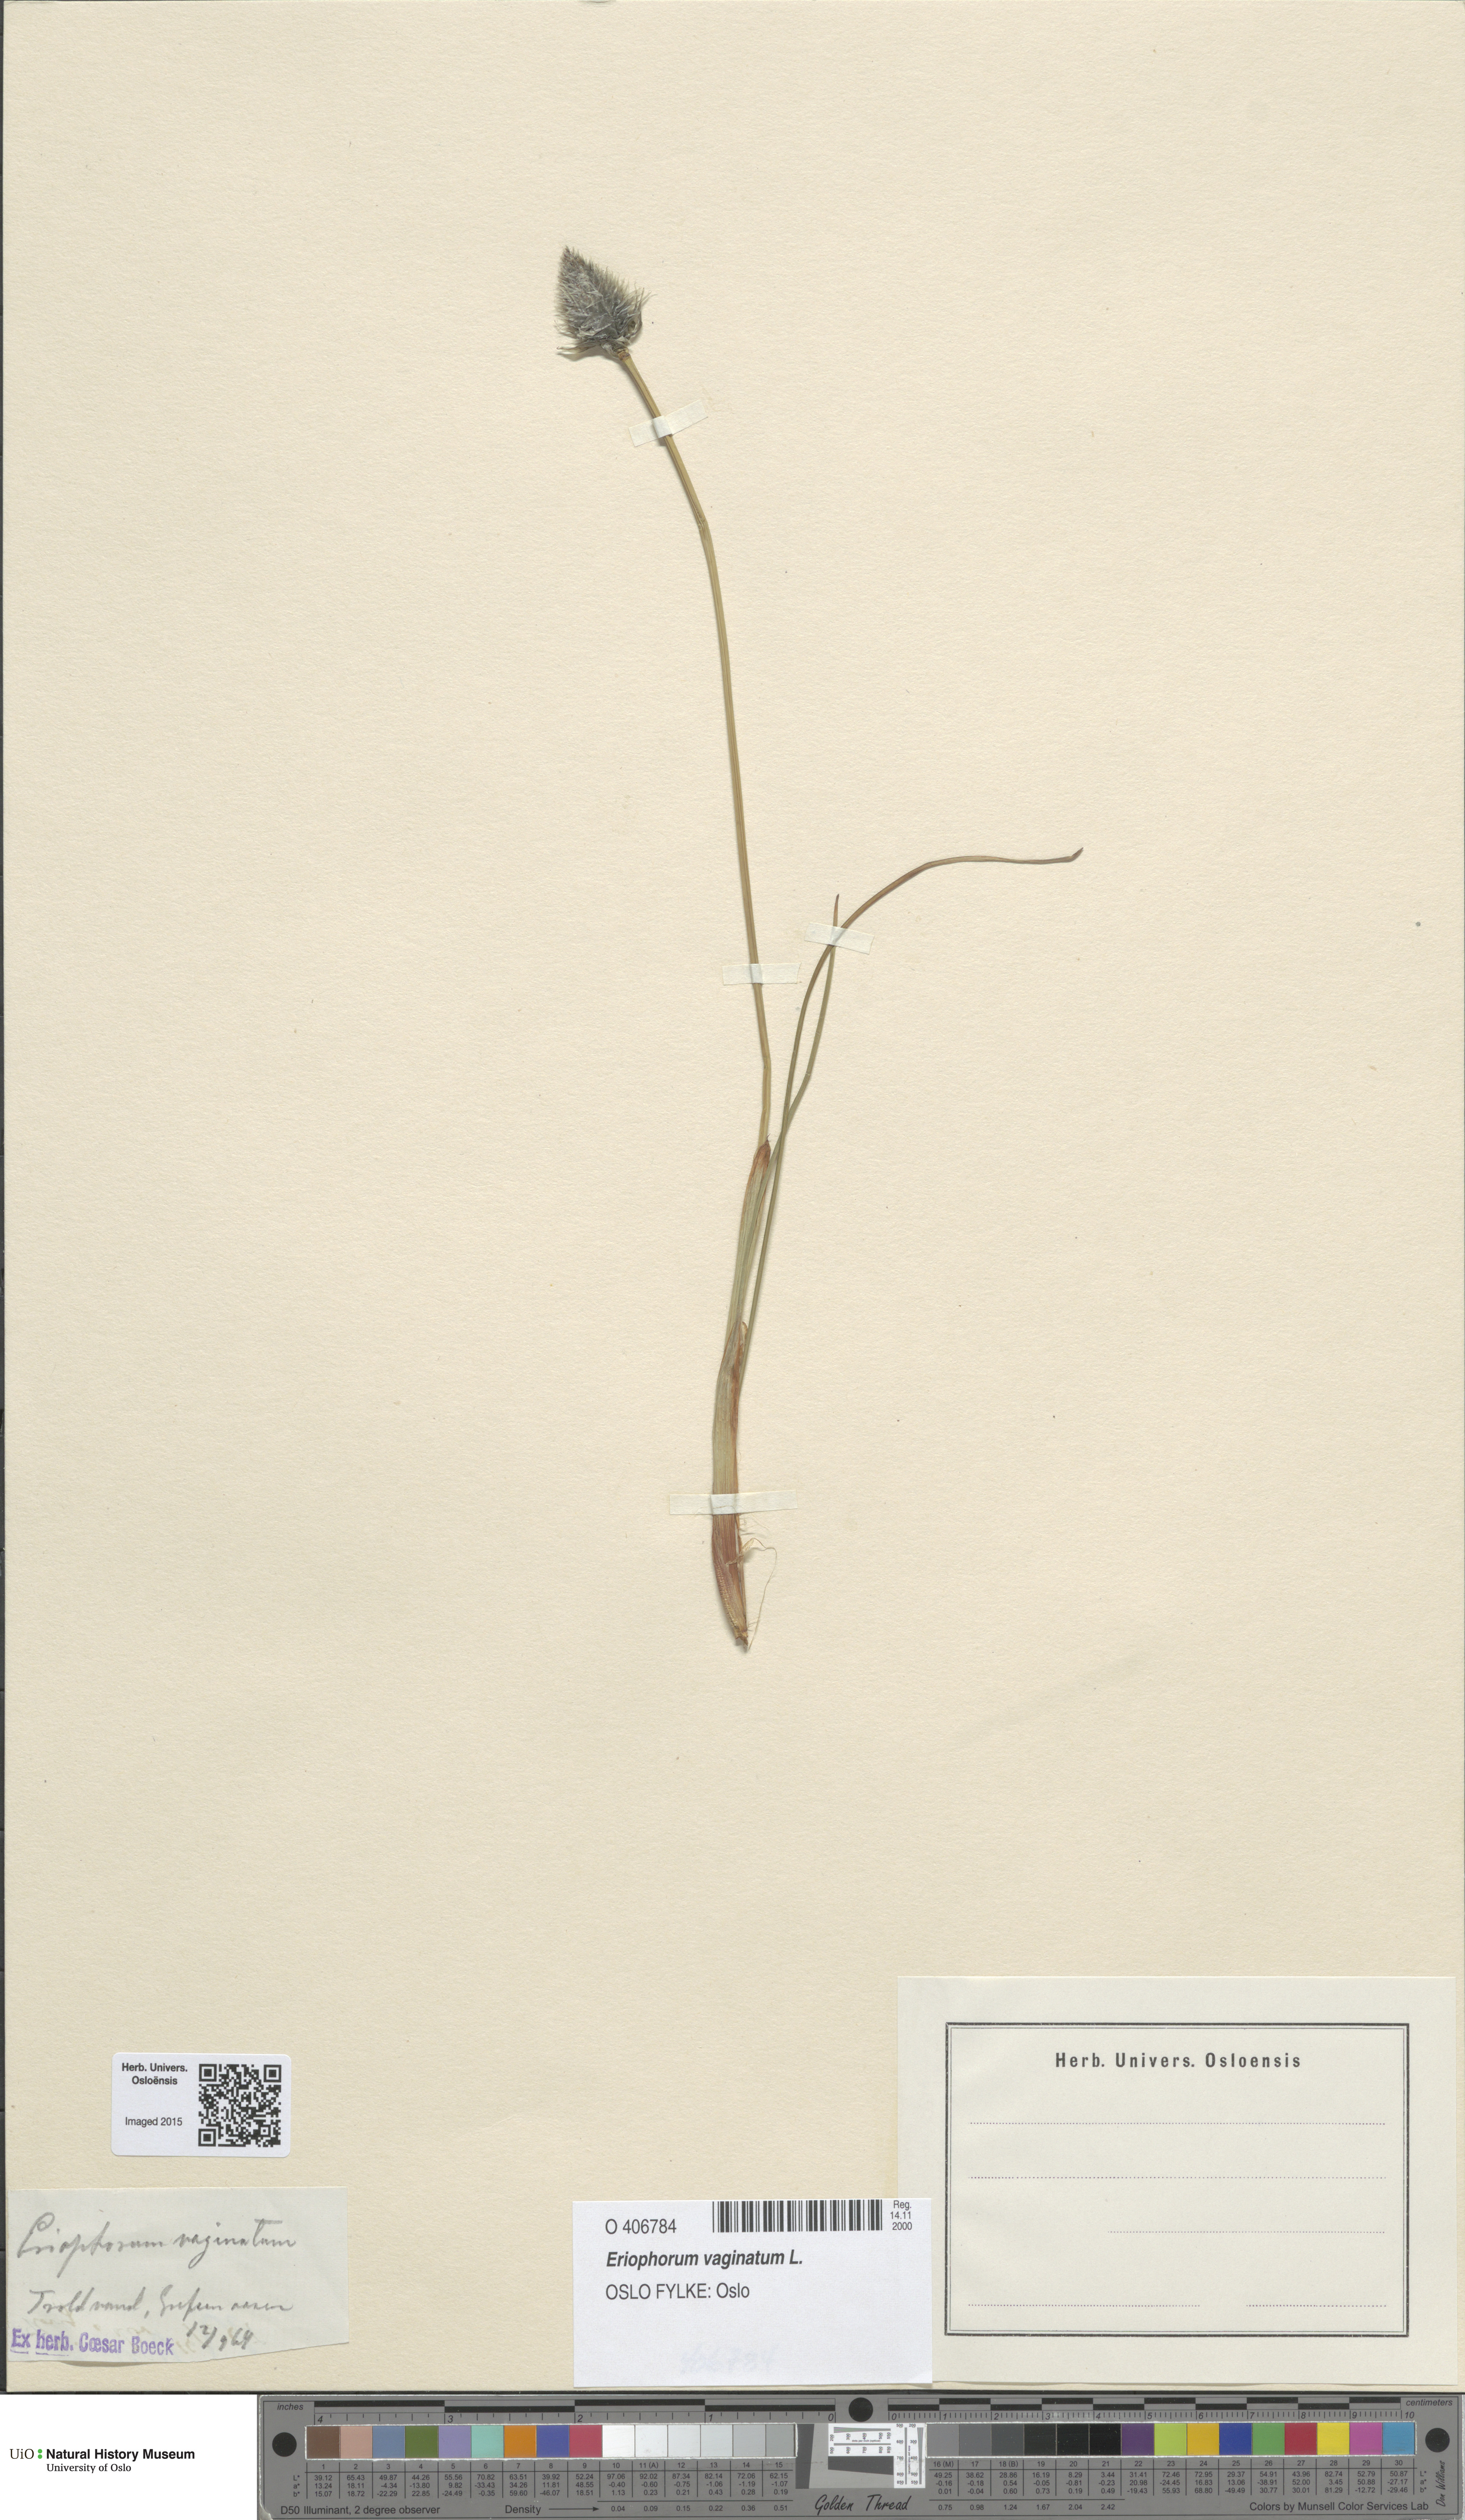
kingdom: Plantae
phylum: Tracheophyta
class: Liliopsida
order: Poales
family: Cyperaceae
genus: Eriophorum
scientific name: Eriophorum vaginatum
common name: Hare's-tail cottongrass
